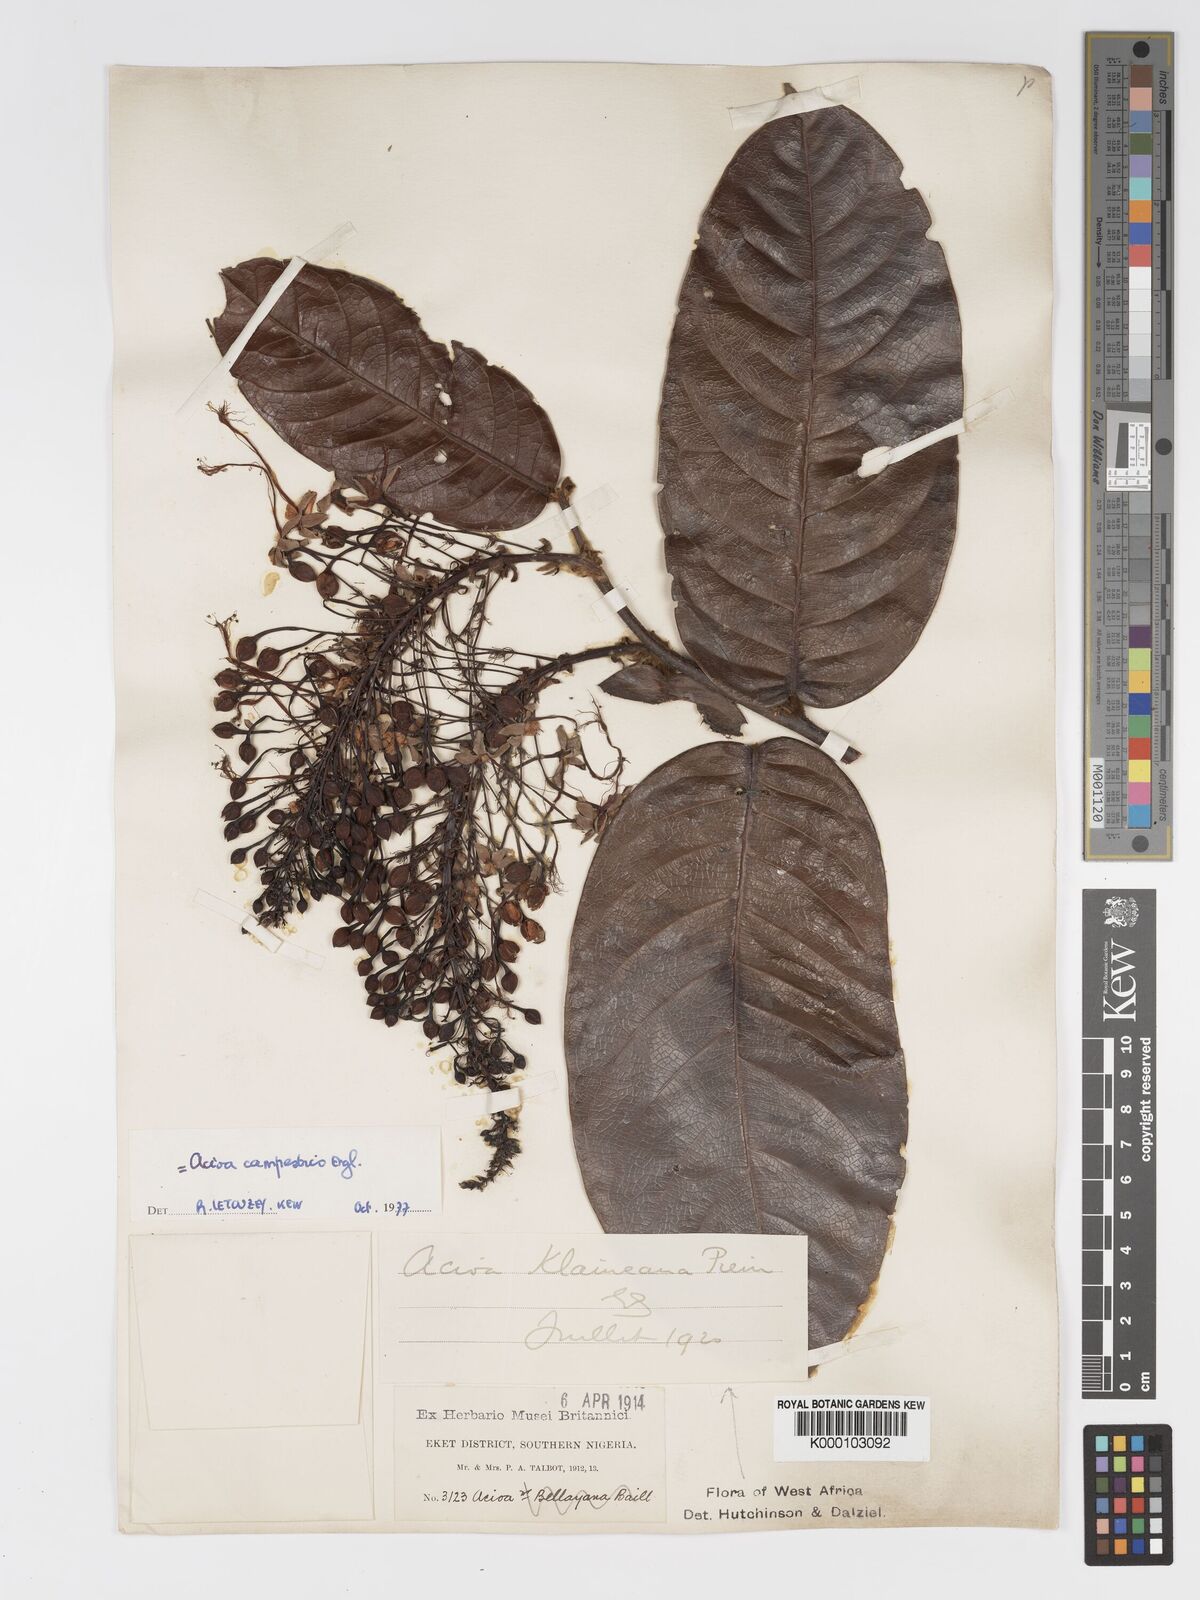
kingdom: Plantae
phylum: Tracheophyta
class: Magnoliopsida
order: Malpighiales
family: Chrysobalanaceae
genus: Dactyladenia
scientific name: Dactyladenia campestris
